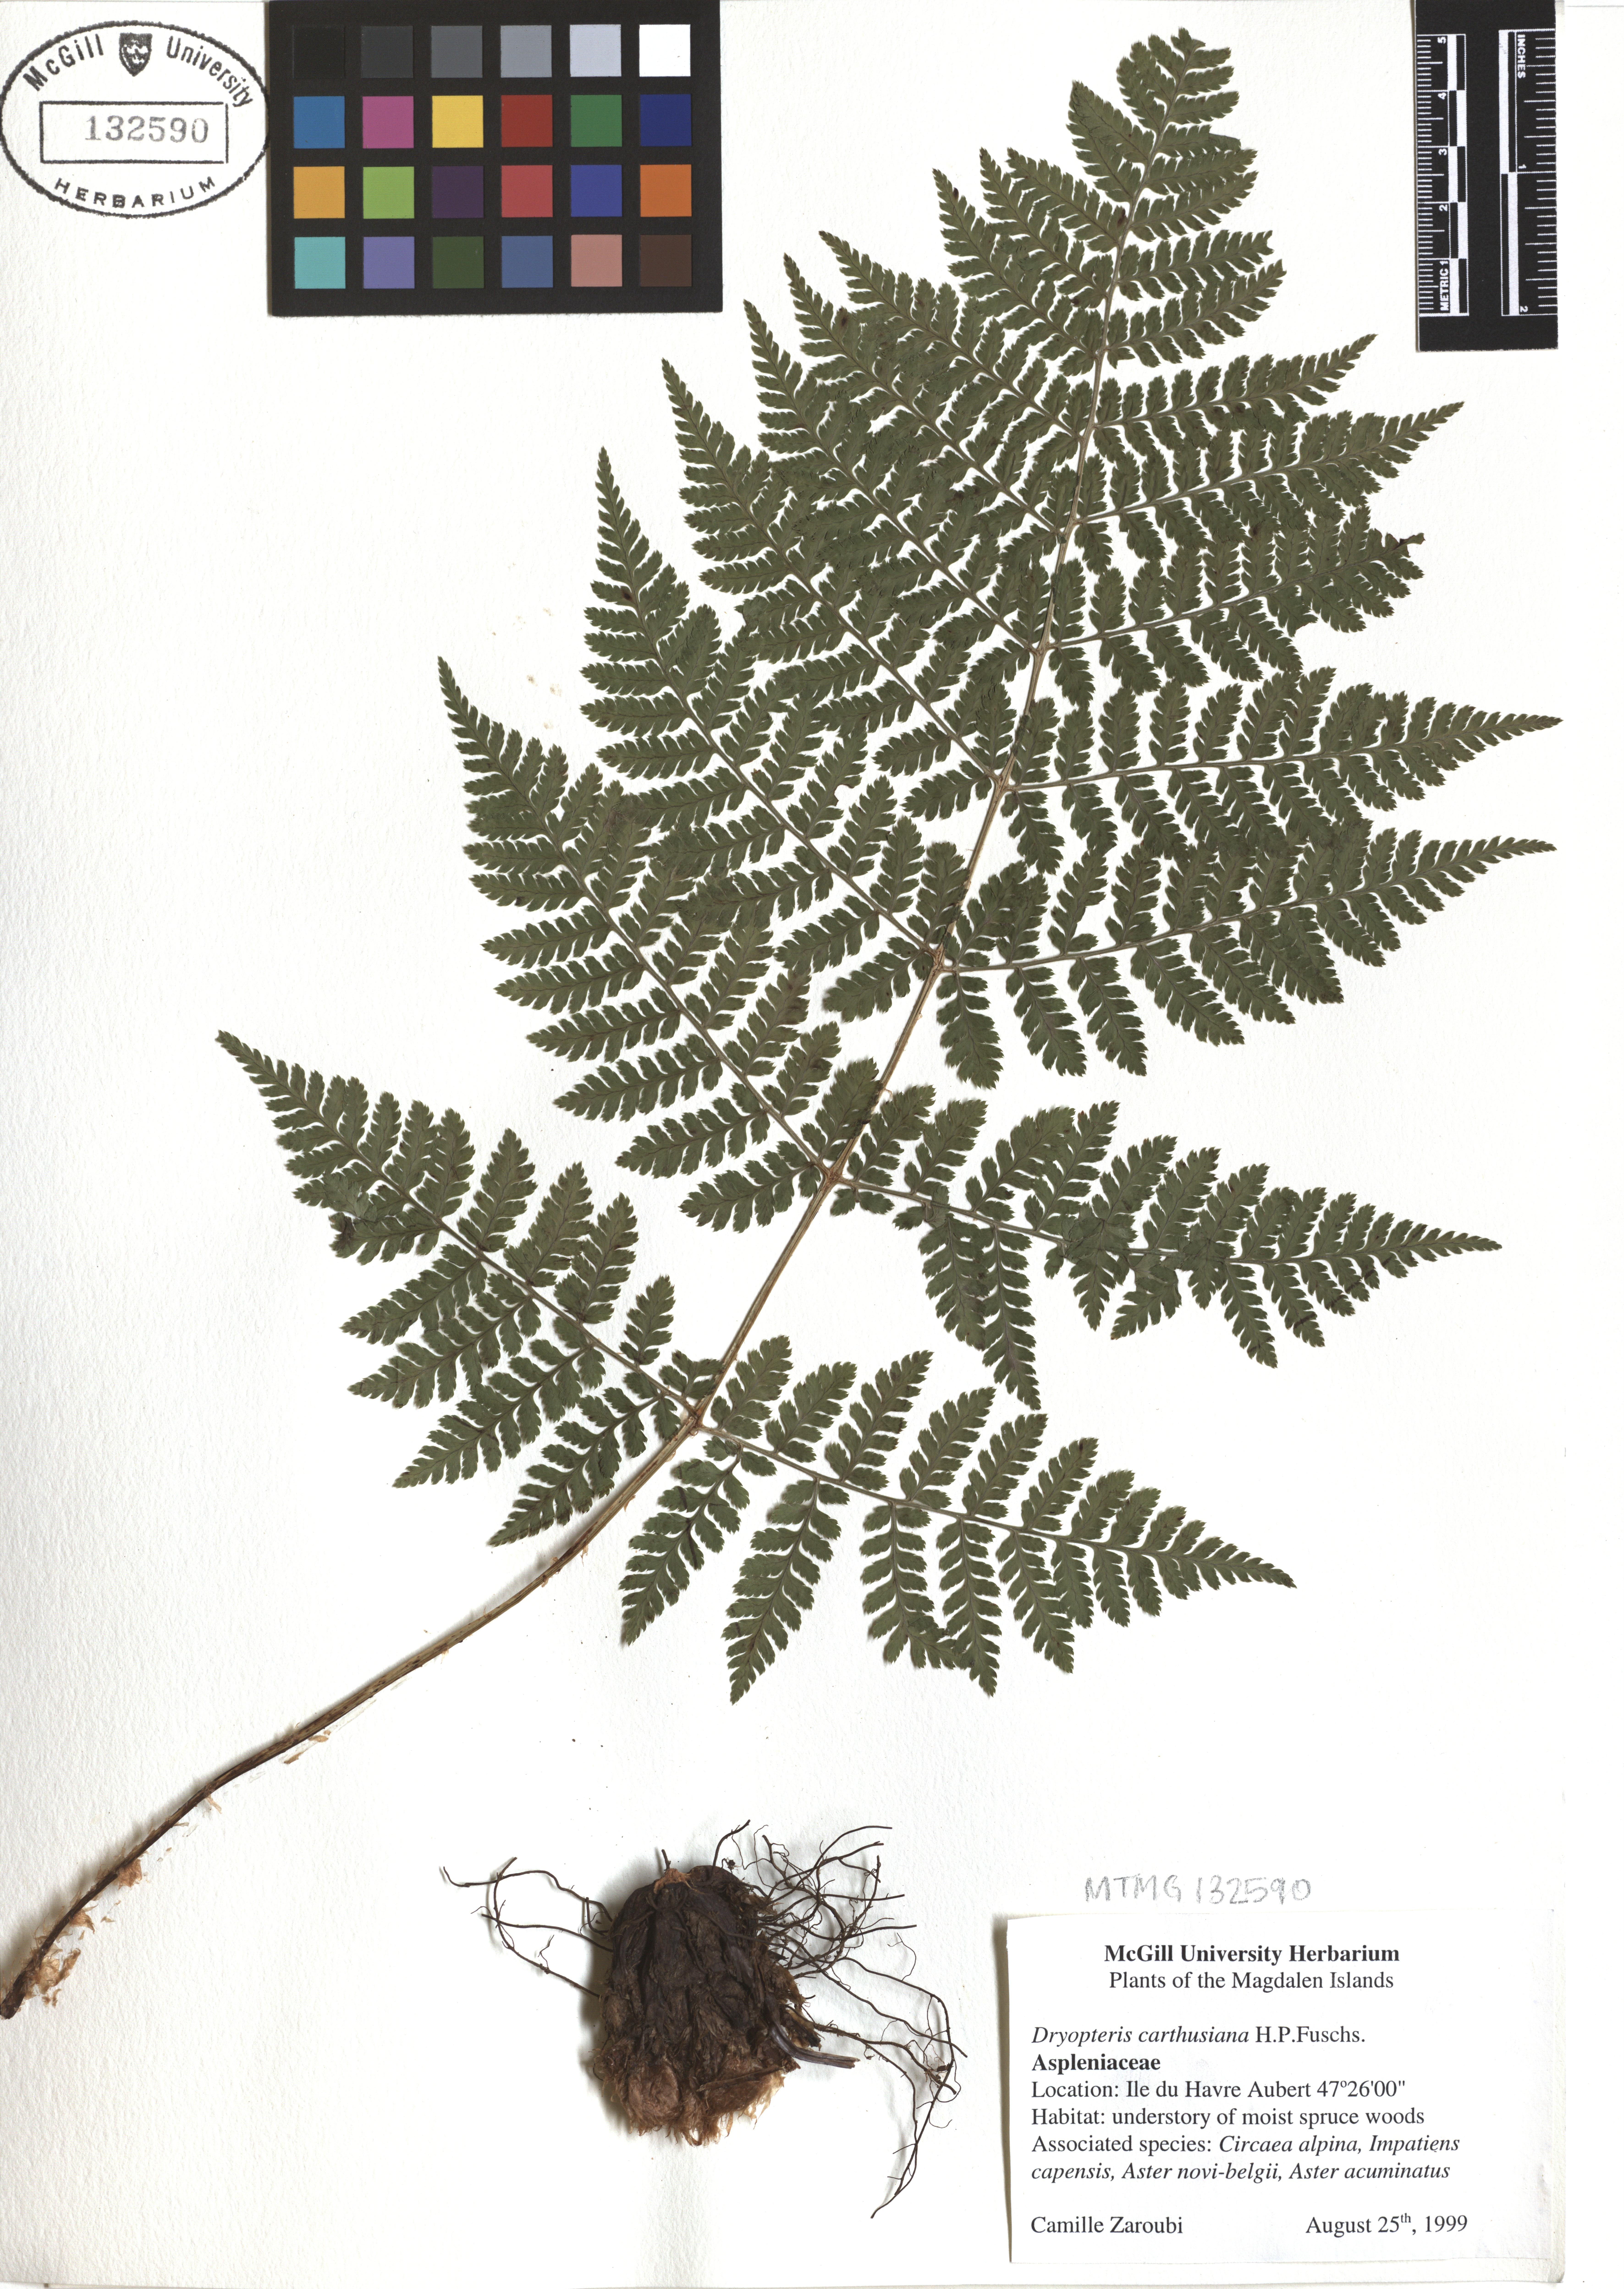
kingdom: Plantae
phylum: Tracheophyta
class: Polypodiopsida
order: Polypodiales
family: Dryopteridaceae
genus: Dryopteris
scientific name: Dryopteris carthusiana
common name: Narrow buckler-fern
